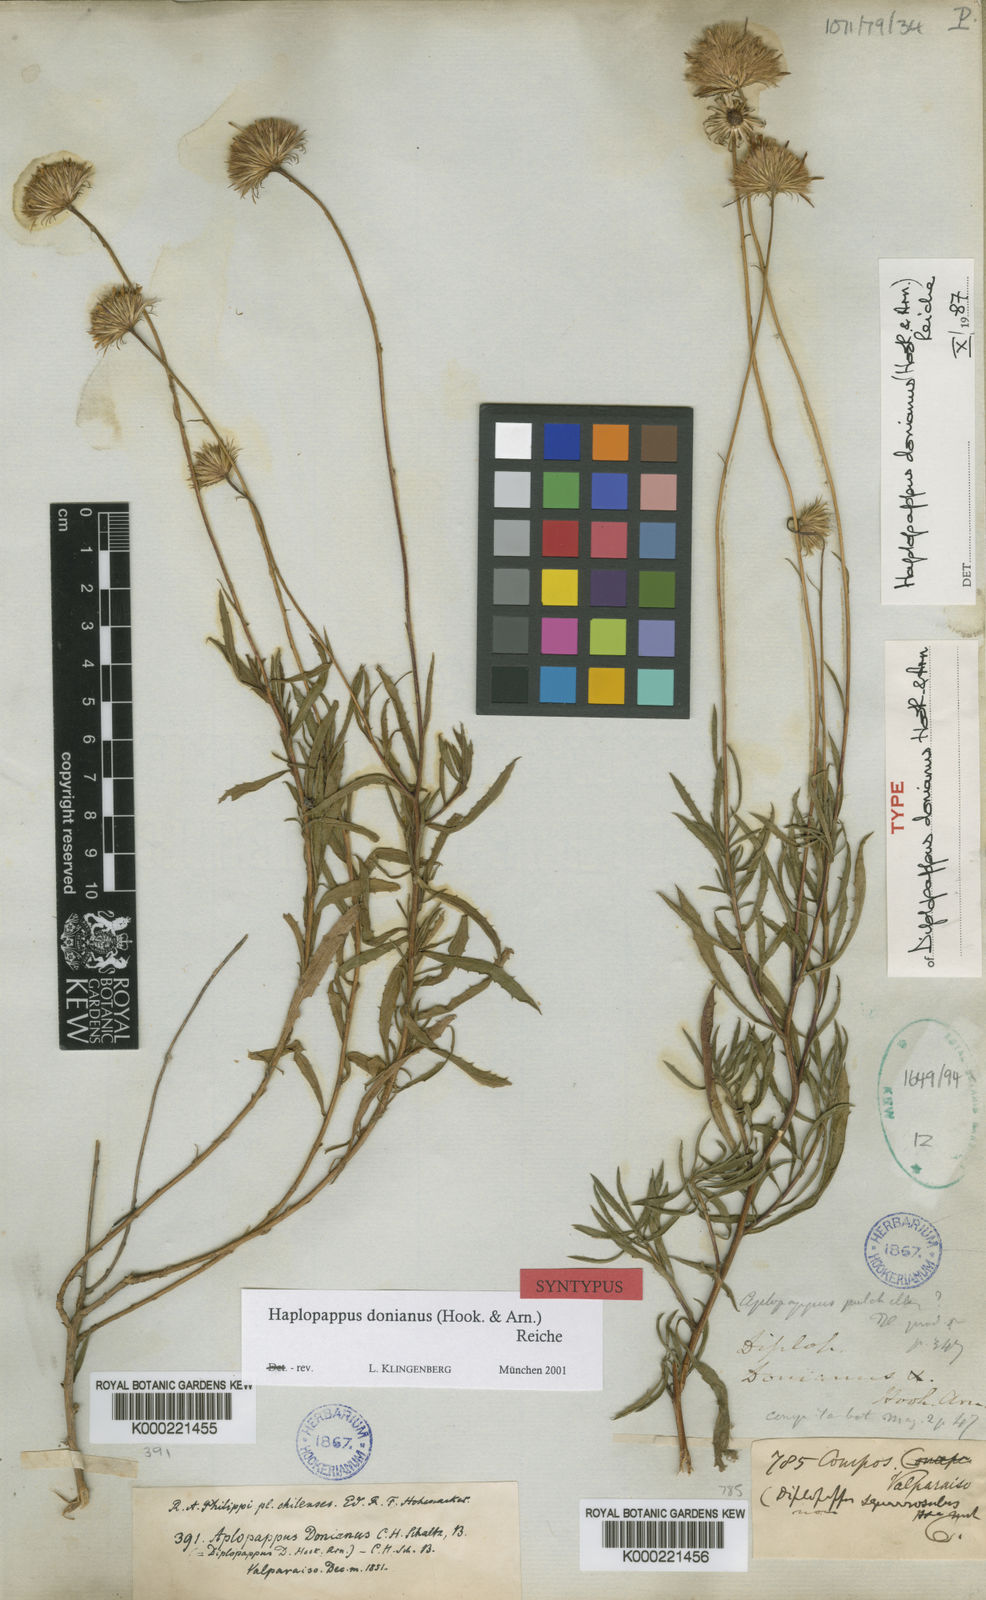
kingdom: Plantae
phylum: Tracheophyta
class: Magnoliopsida
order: Asterales
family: Asteraceae
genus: Haplopappus
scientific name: Haplopappus donianus
